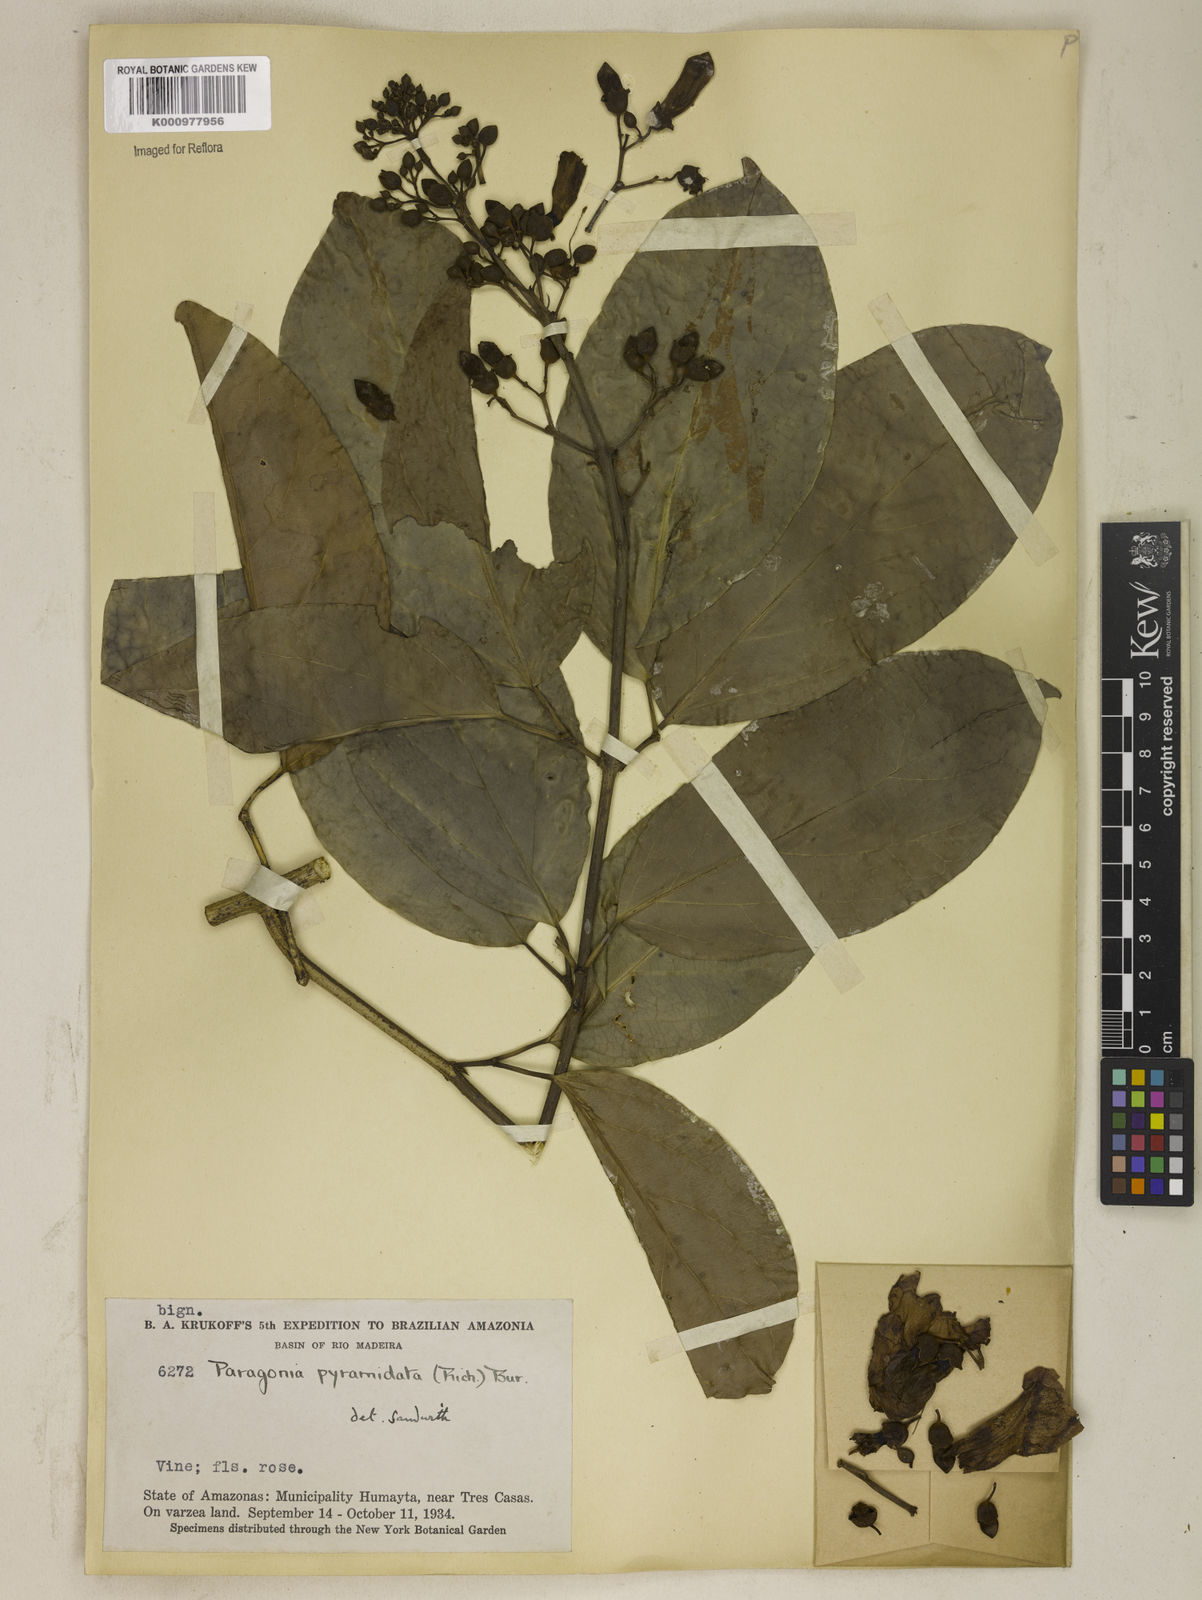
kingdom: Plantae
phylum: Tracheophyta
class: Magnoliopsida
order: Lamiales
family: Bignoniaceae
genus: Tanaecium
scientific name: Tanaecium pyramidatum
